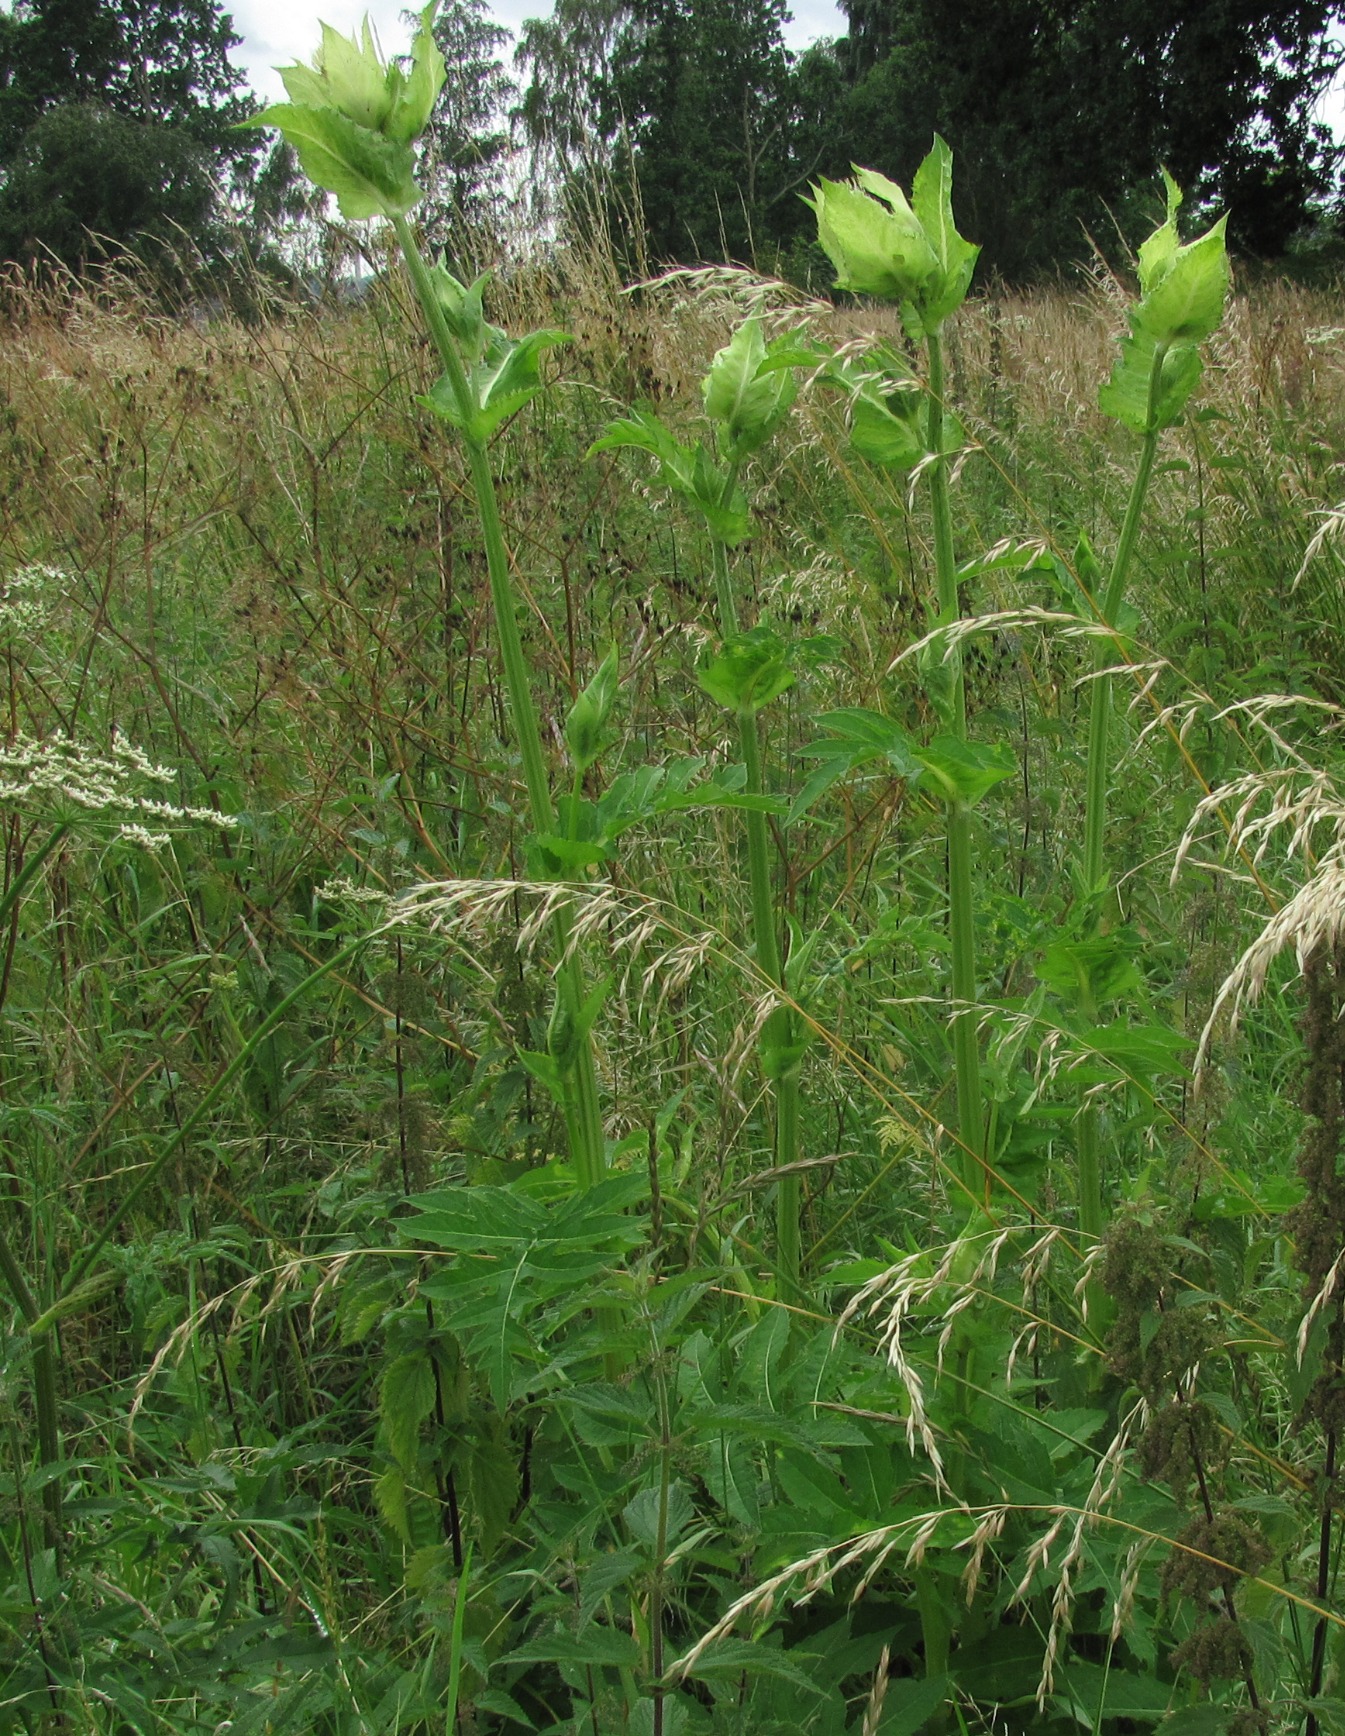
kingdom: Plantae
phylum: Tracheophyta
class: Magnoliopsida
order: Asterales
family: Asteraceae
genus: Cirsium
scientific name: Cirsium oleraceum
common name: Kål-tidsel
